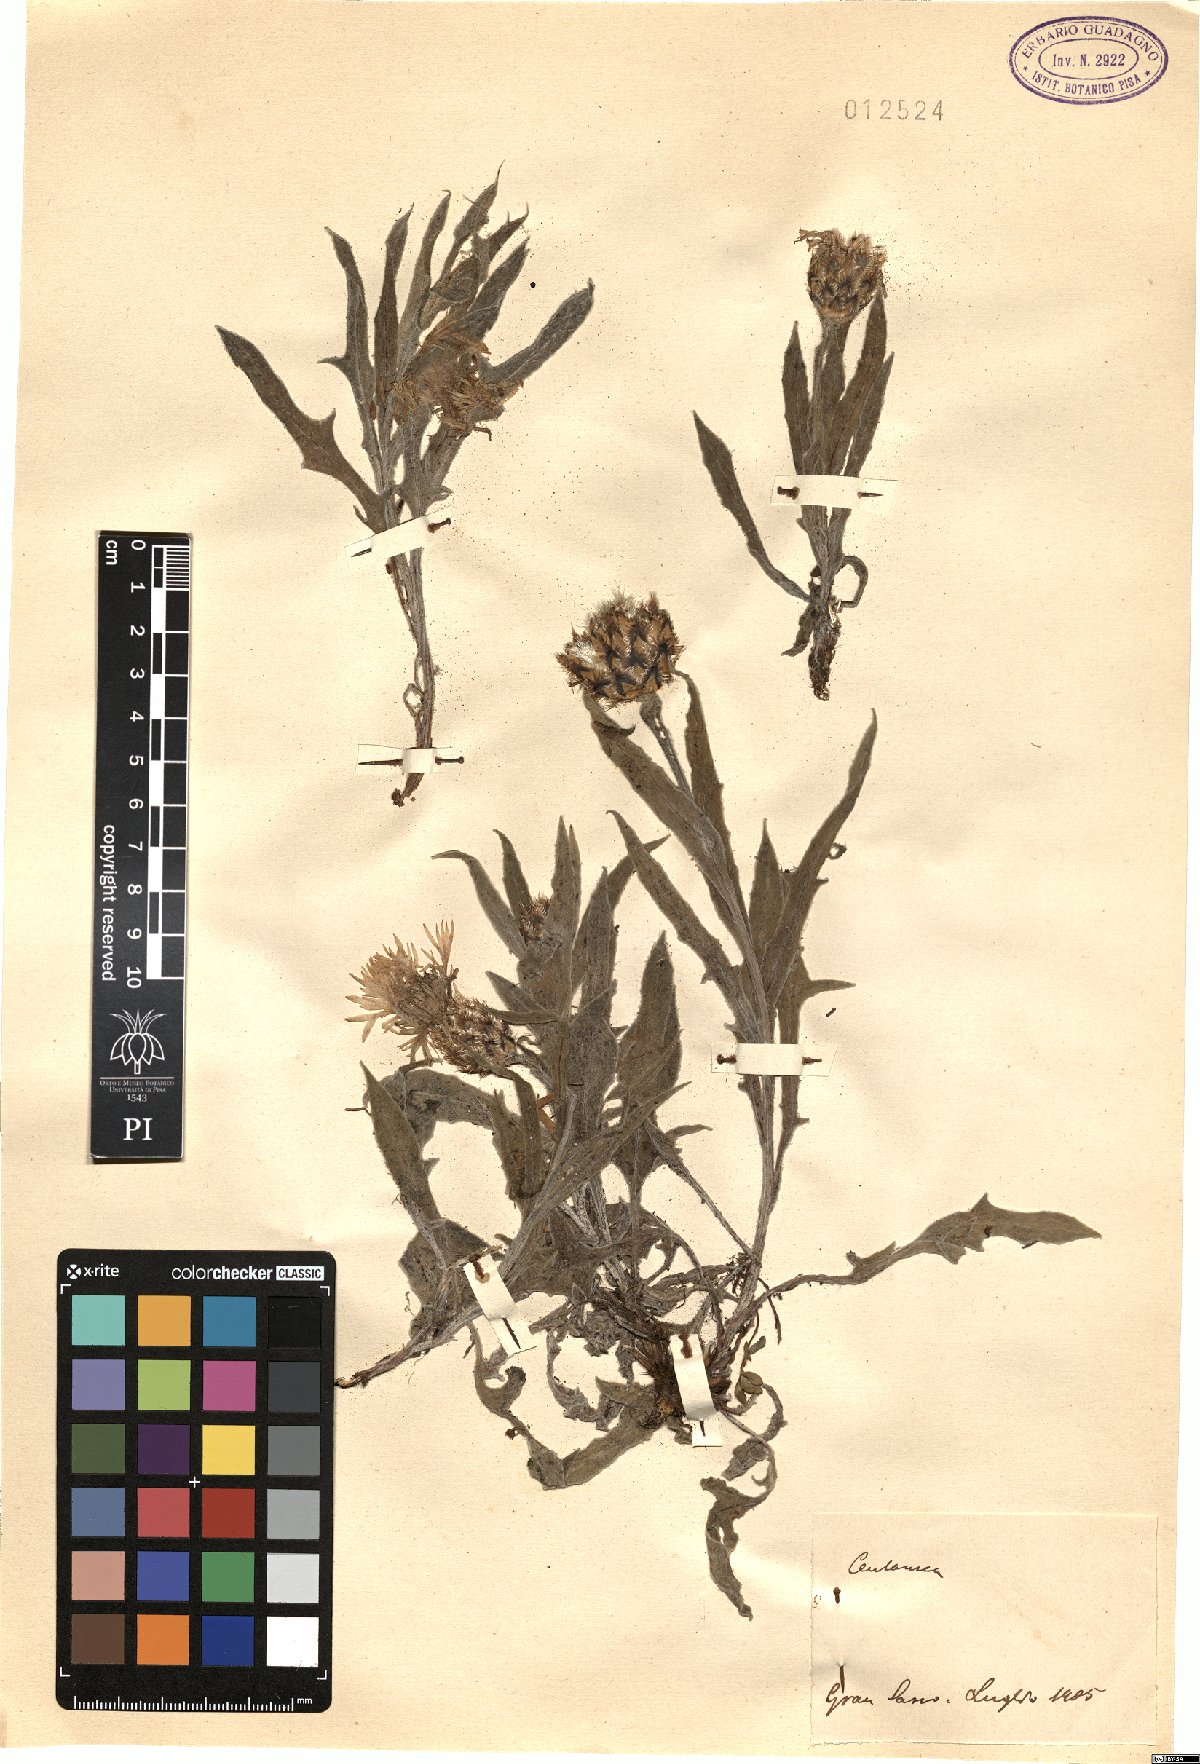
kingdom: Plantae
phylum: Tracheophyta
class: Magnoliopsida
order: Asterales
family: Asteraceae
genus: Centaurea
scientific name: Centaurea
